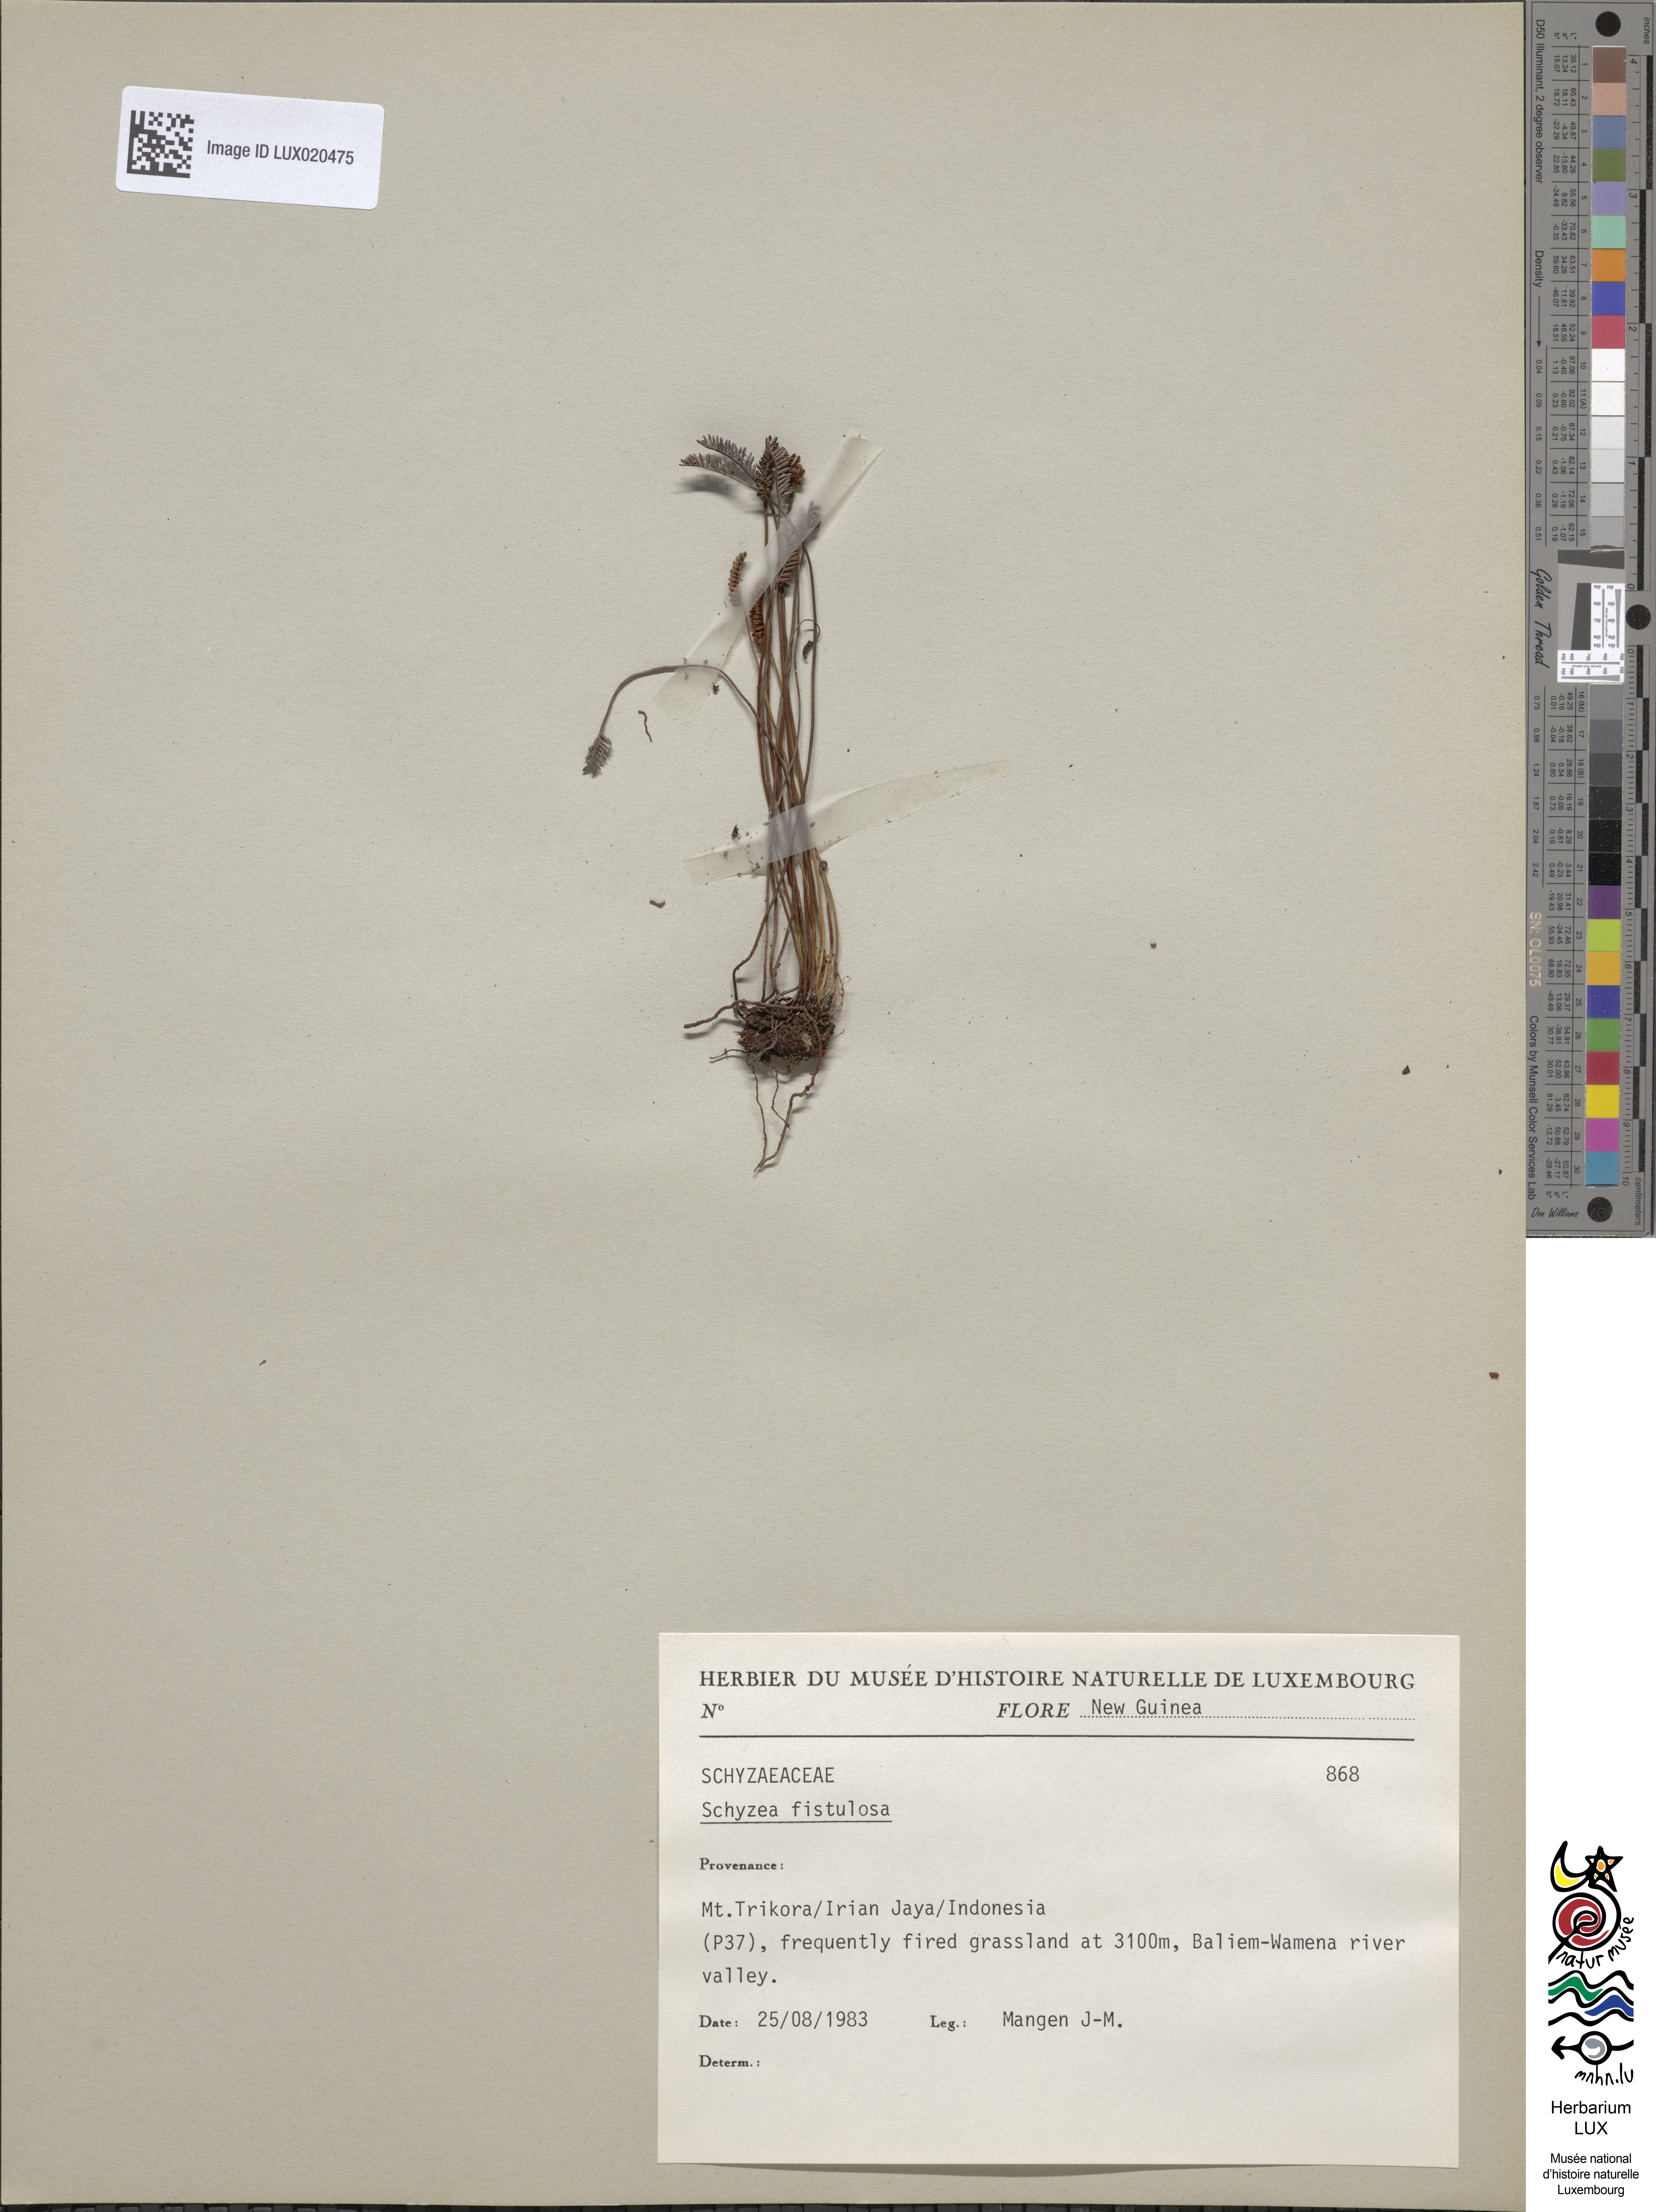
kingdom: Plantae
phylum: Tracheophyta
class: Polypodiopsida
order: Schizaeales
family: Schizaeaceae
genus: Microschizaea
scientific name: Microschizaea fistulosa
